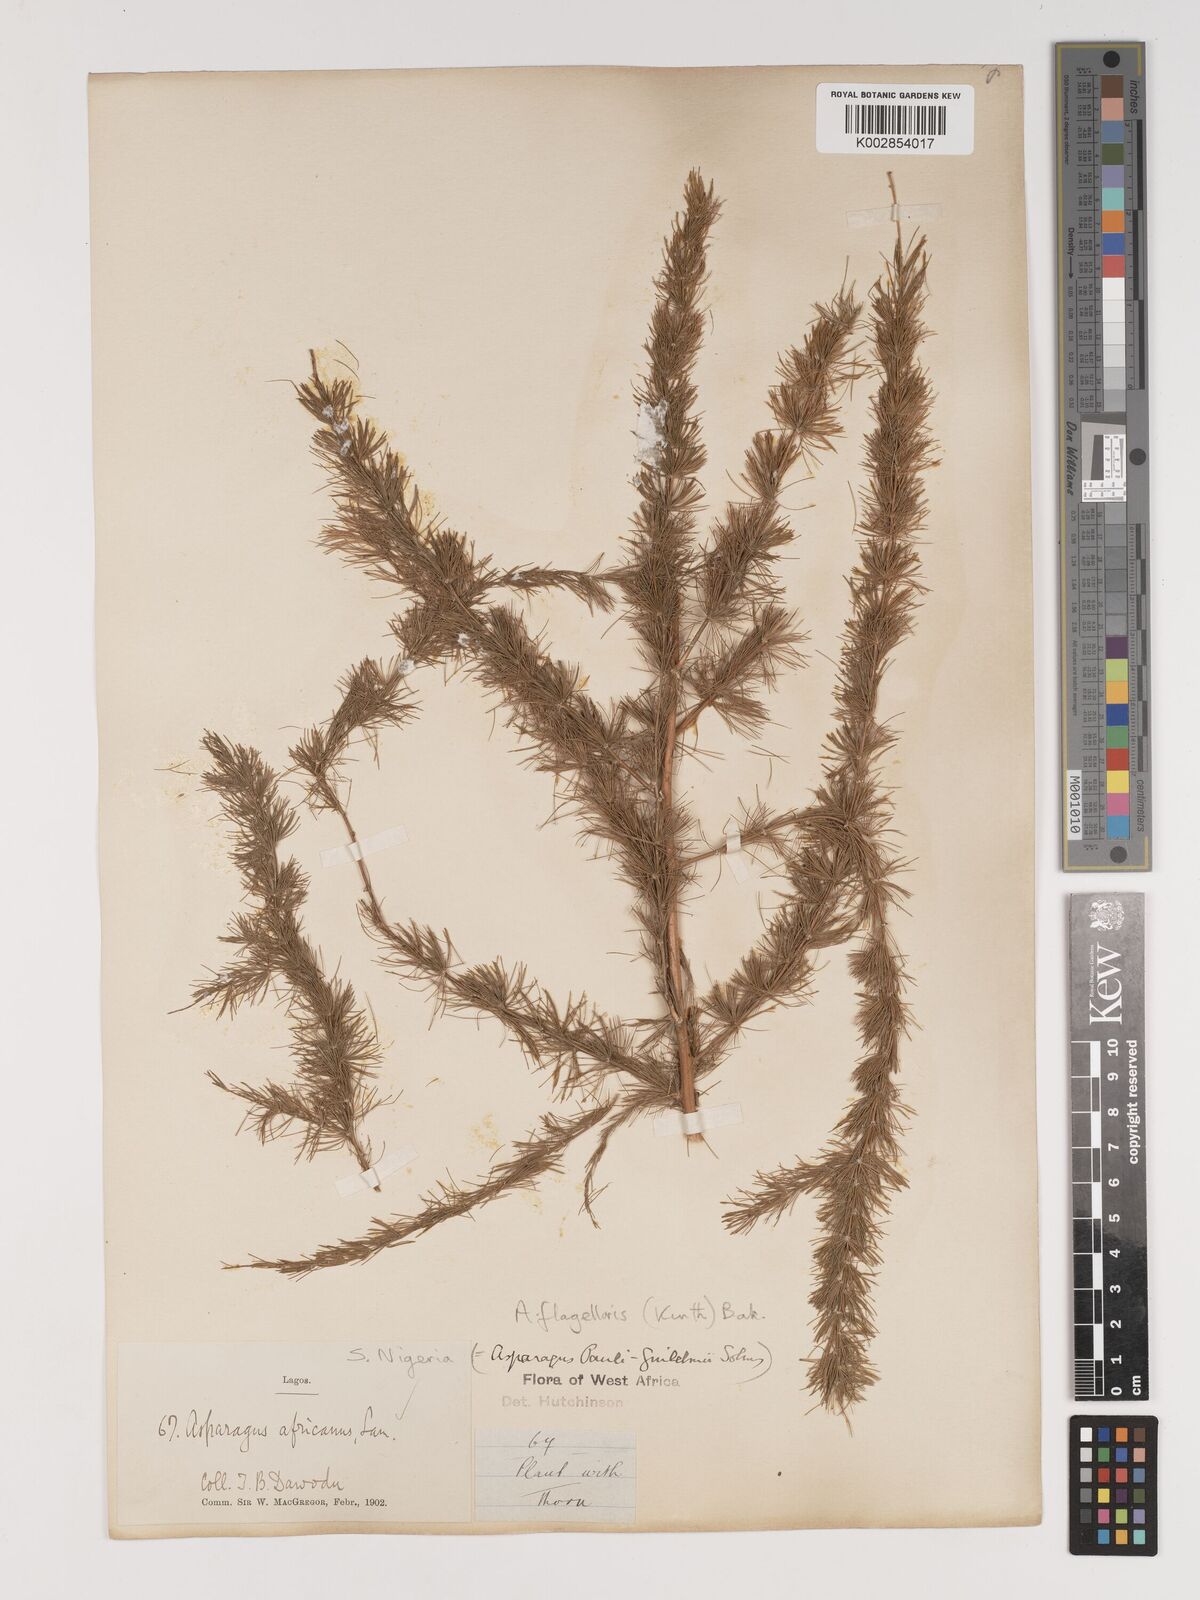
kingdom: Plantae
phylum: Tracheophyta
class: Liliopsida
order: Asparagales
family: Asparagaceae
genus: Asparagus
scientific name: Asparagus flagellaris
